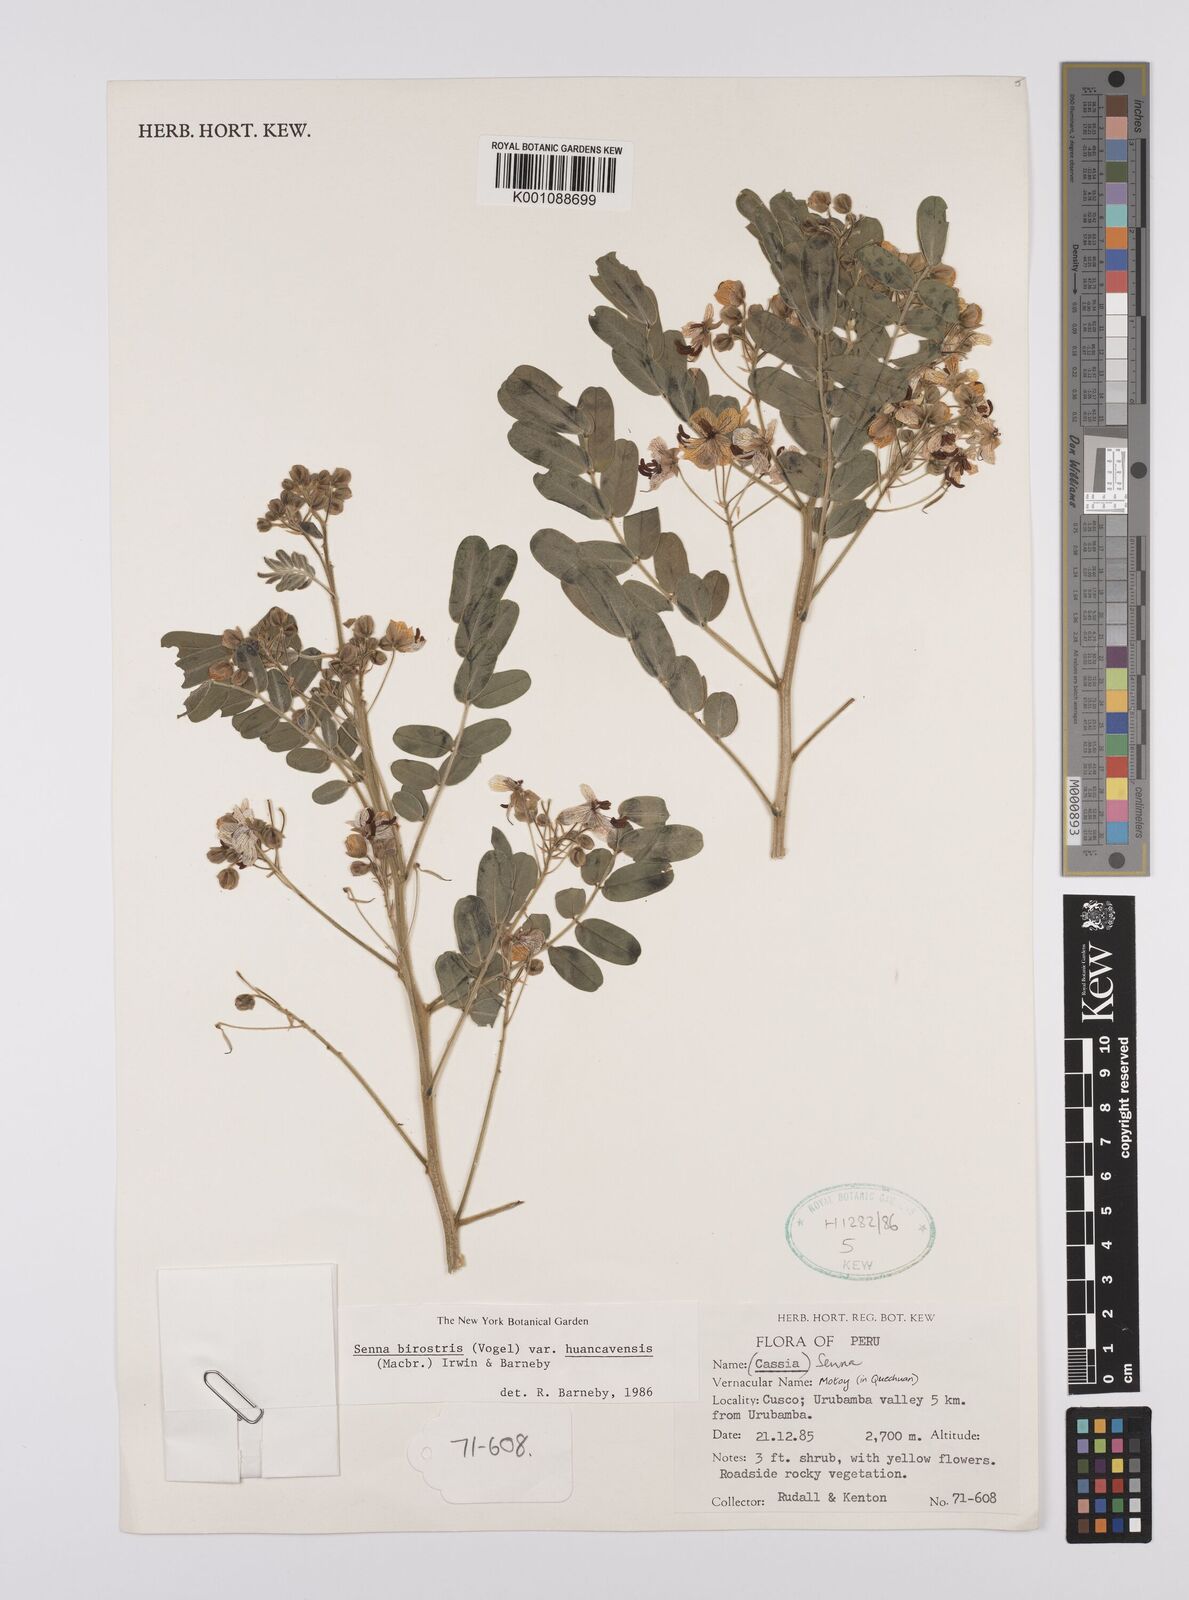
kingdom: Plantae
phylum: Tracheophyta
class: Magnoliopsida
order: Fabales
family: Fabaceae
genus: Senna
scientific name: Senna birostris
